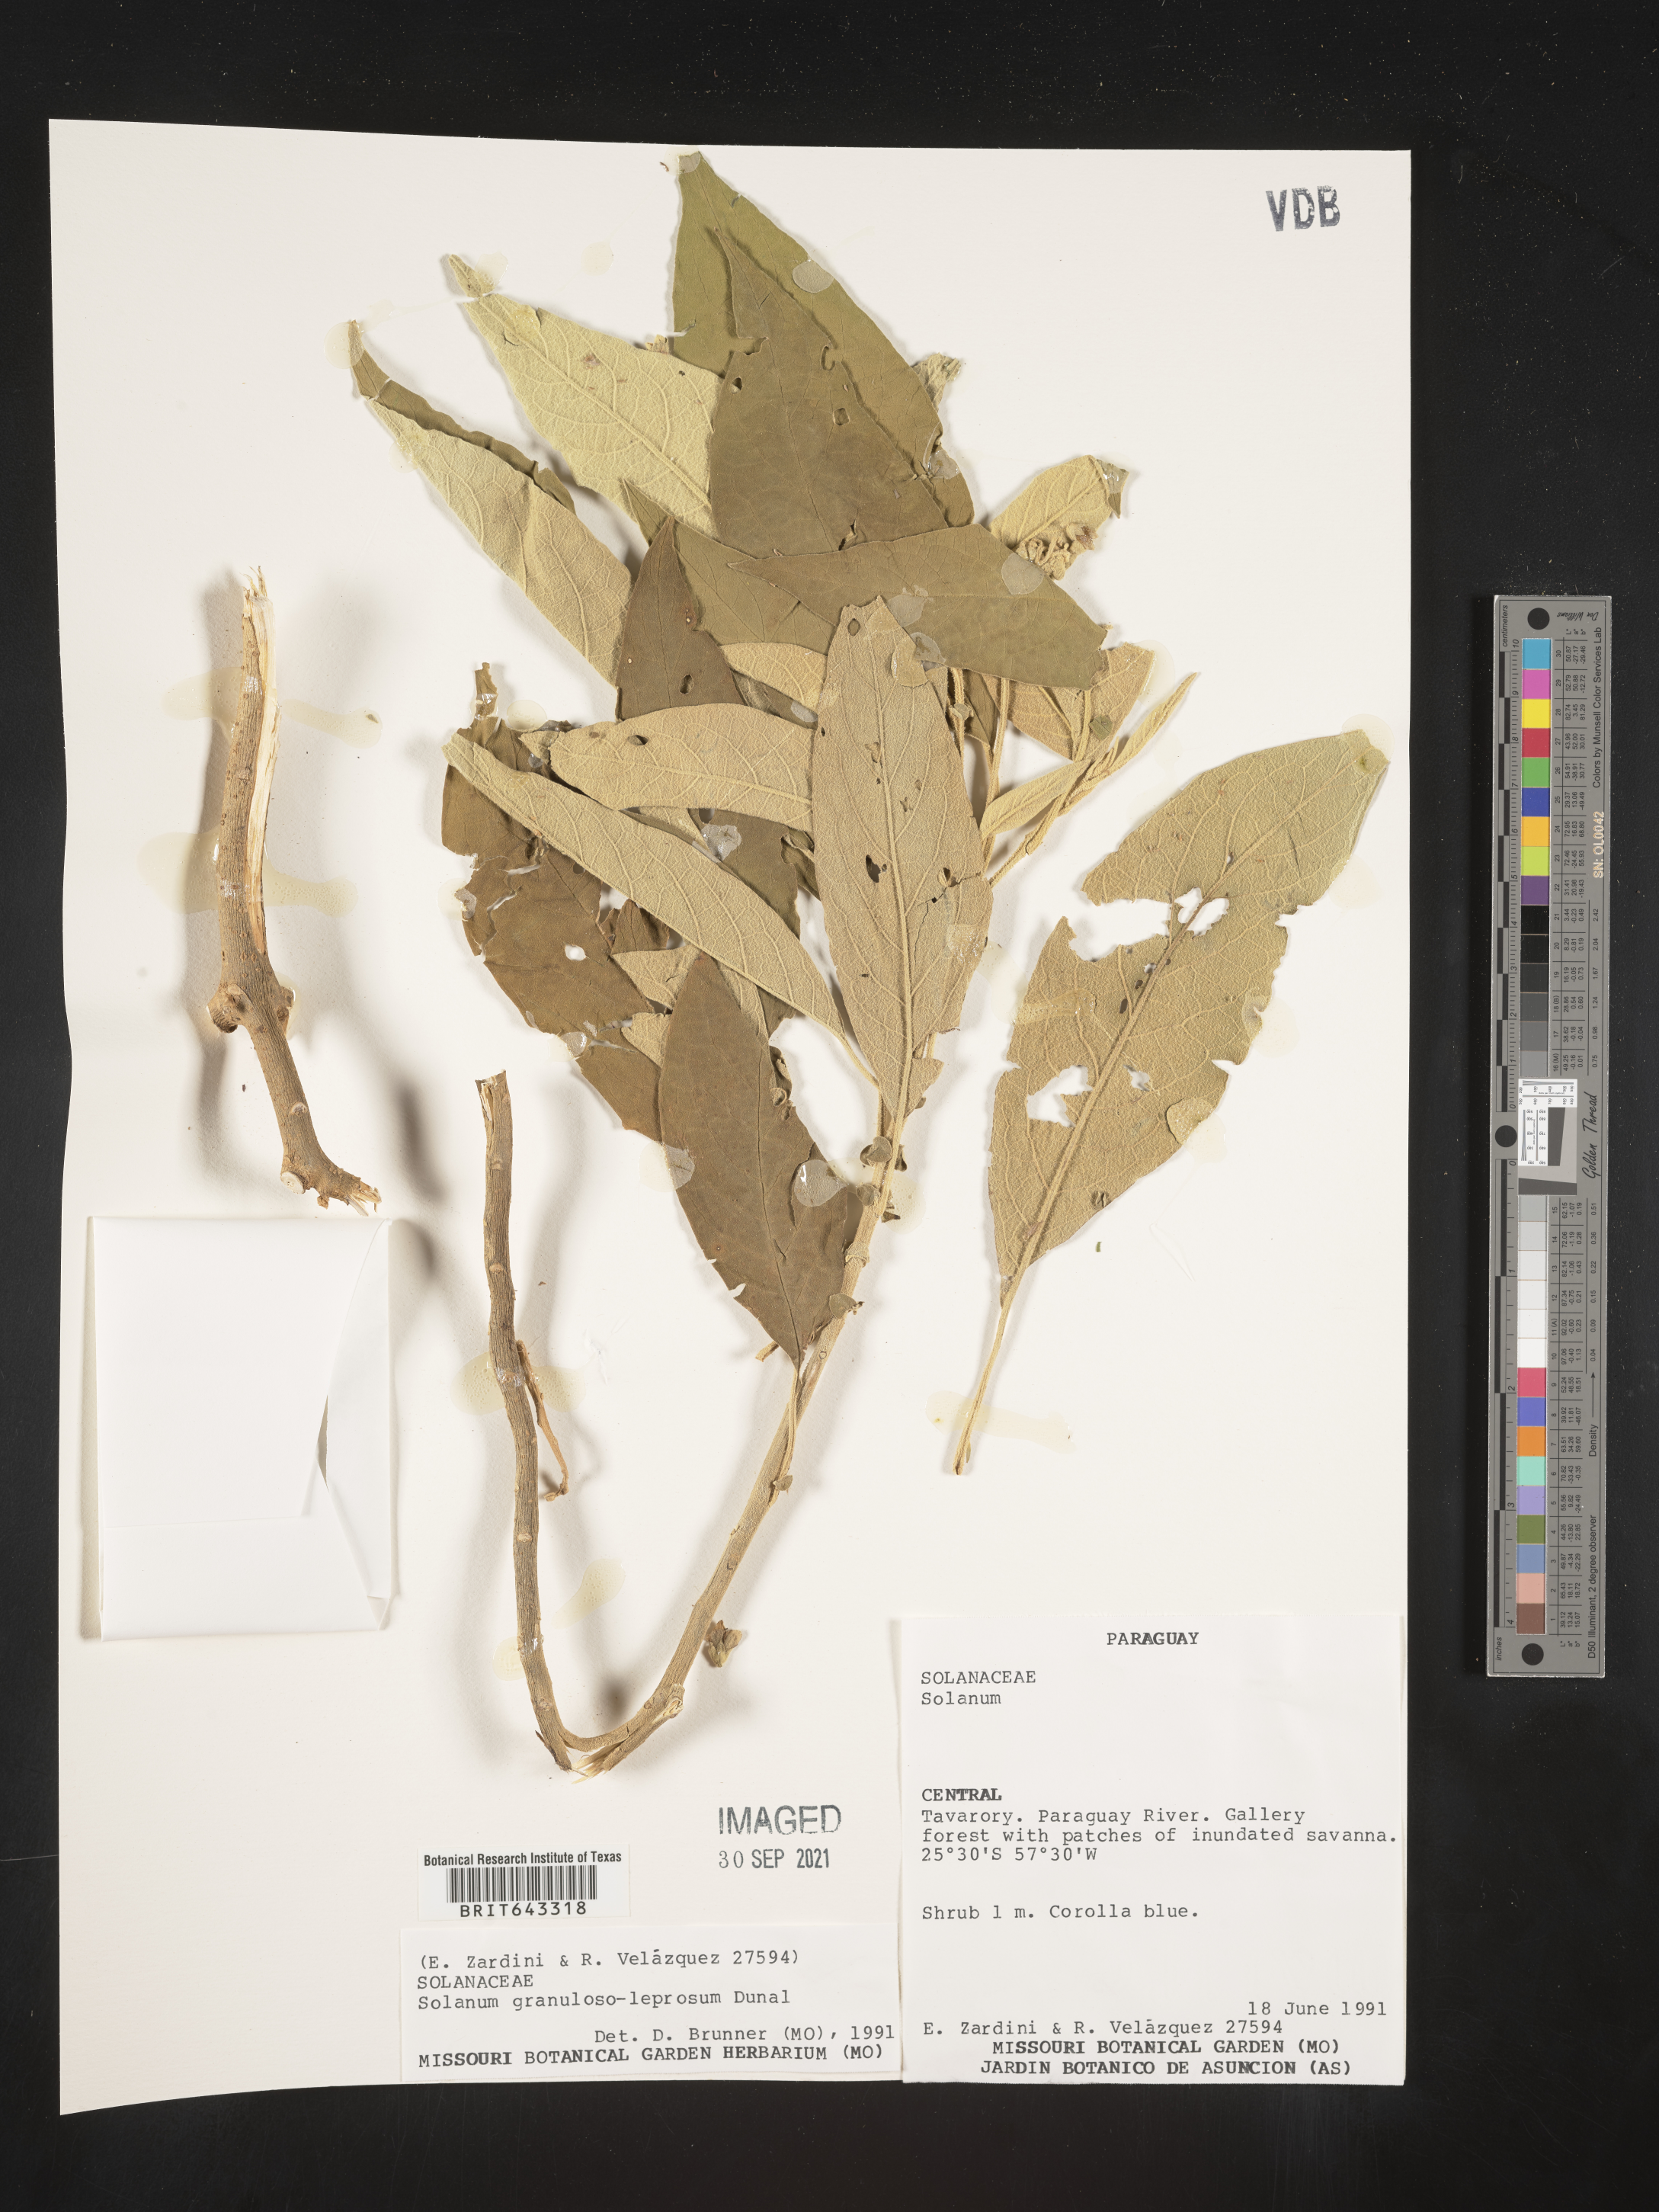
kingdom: Plantae
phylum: Tracheophyta
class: Magnoliopsida
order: Solanales
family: Solanaceae
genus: Solanum
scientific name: Solanum
